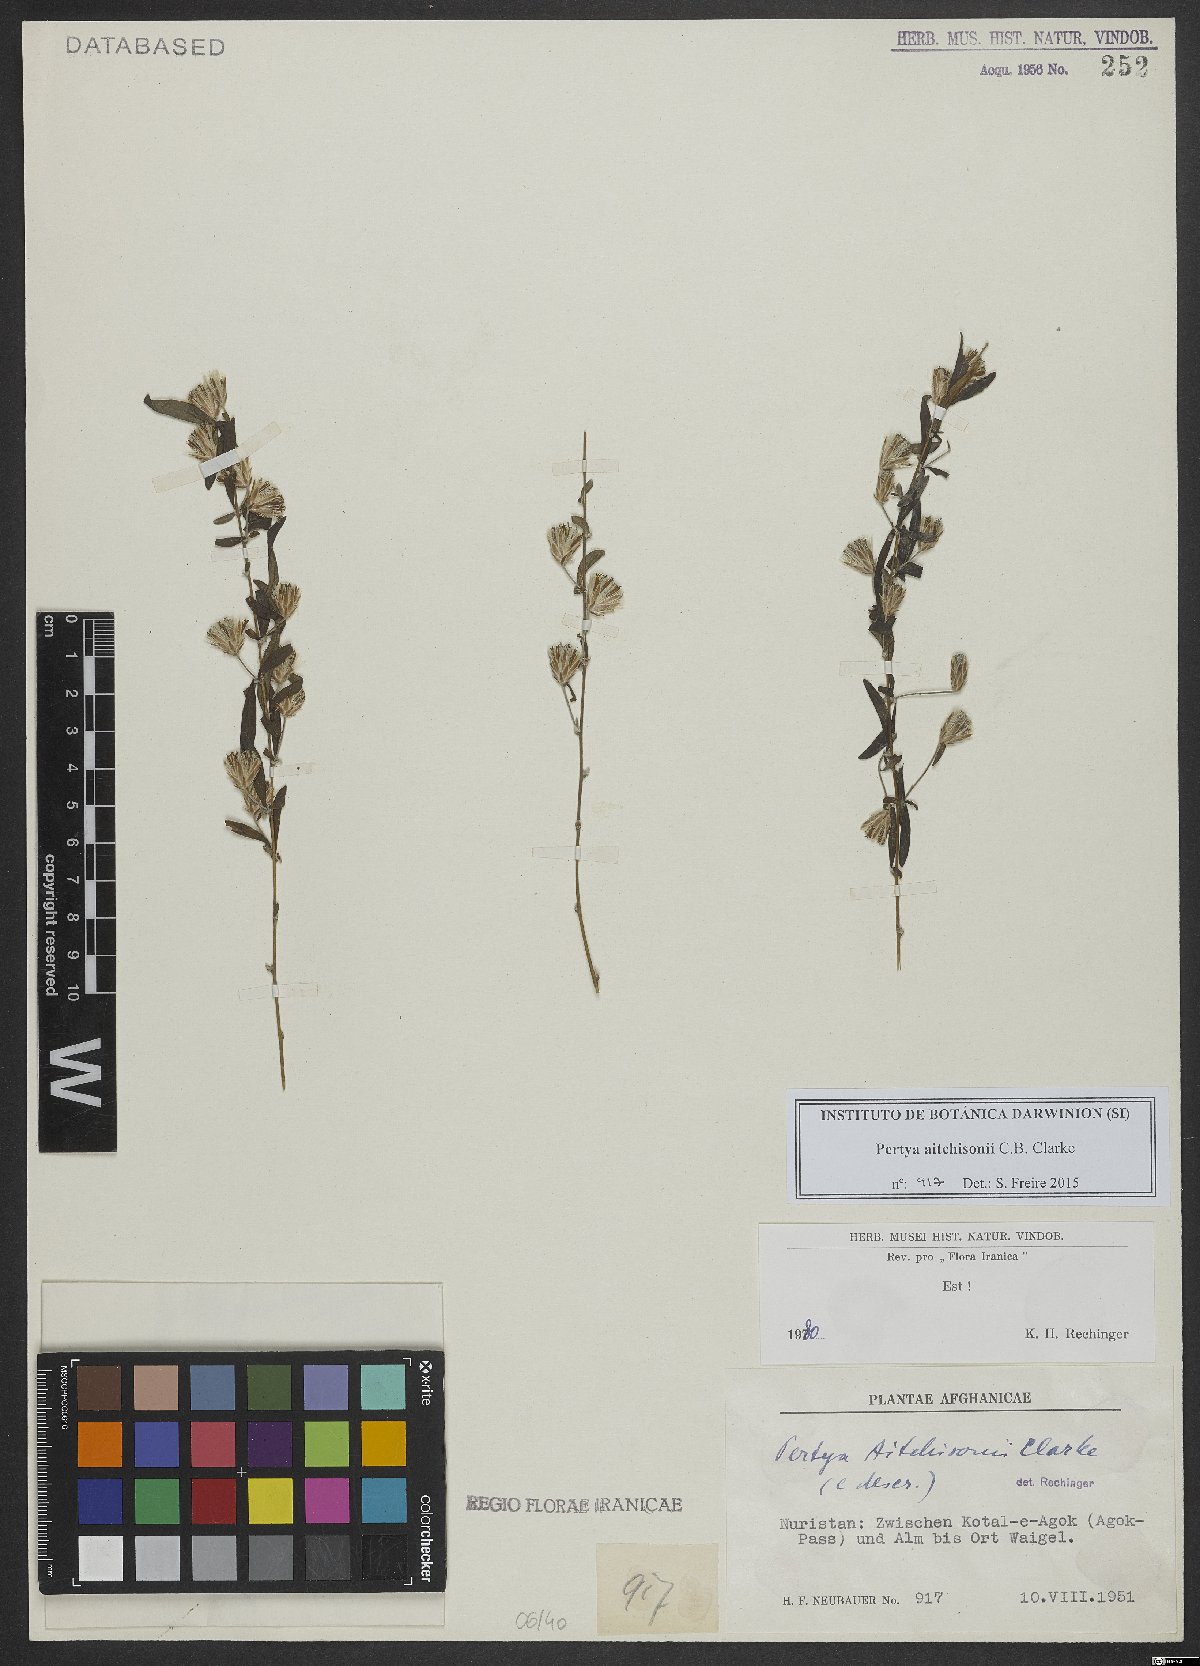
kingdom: Plantae
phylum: Tracheophyta
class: Magnoliopsida
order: Asterales
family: Asteraceae
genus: Pertya
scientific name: Pertya aitchisonii
